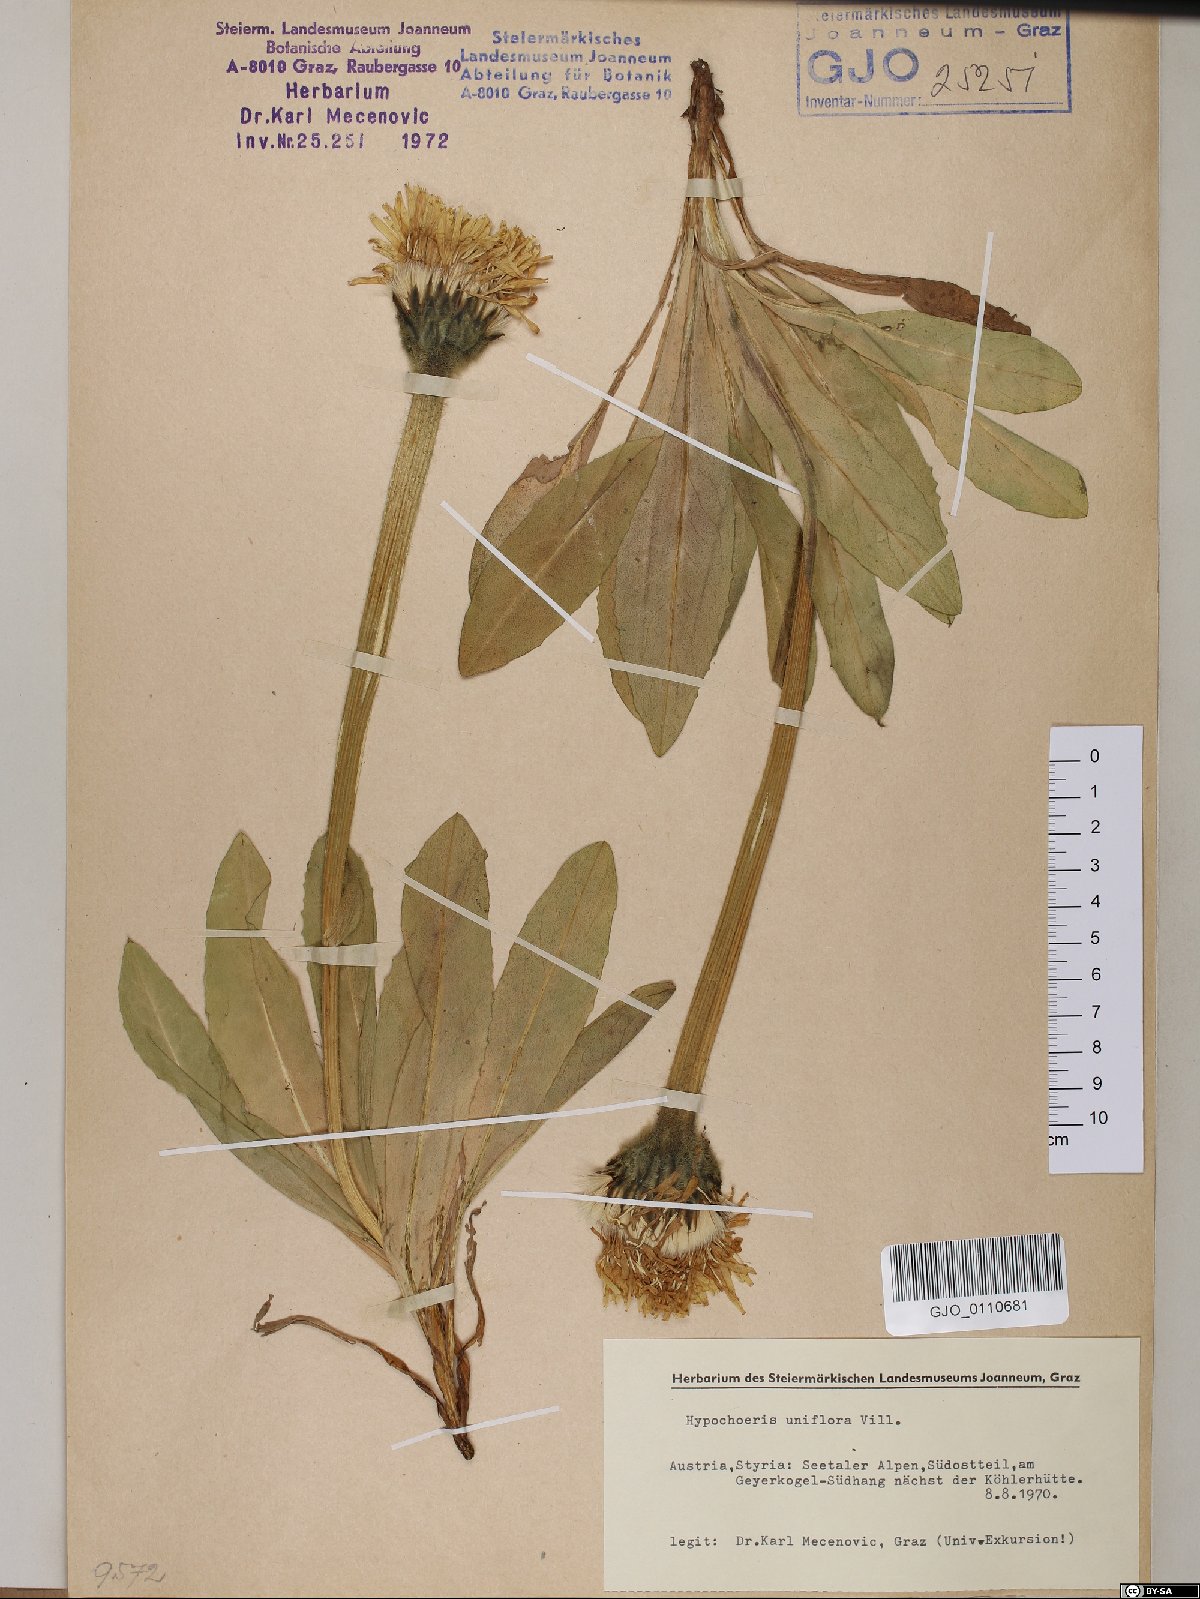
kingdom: Plantae
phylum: Tracheophyta
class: Magnoliopsida
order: Asterales
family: Asteraceae
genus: Trommsdorffia
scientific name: Trommsdorffia uniflora
